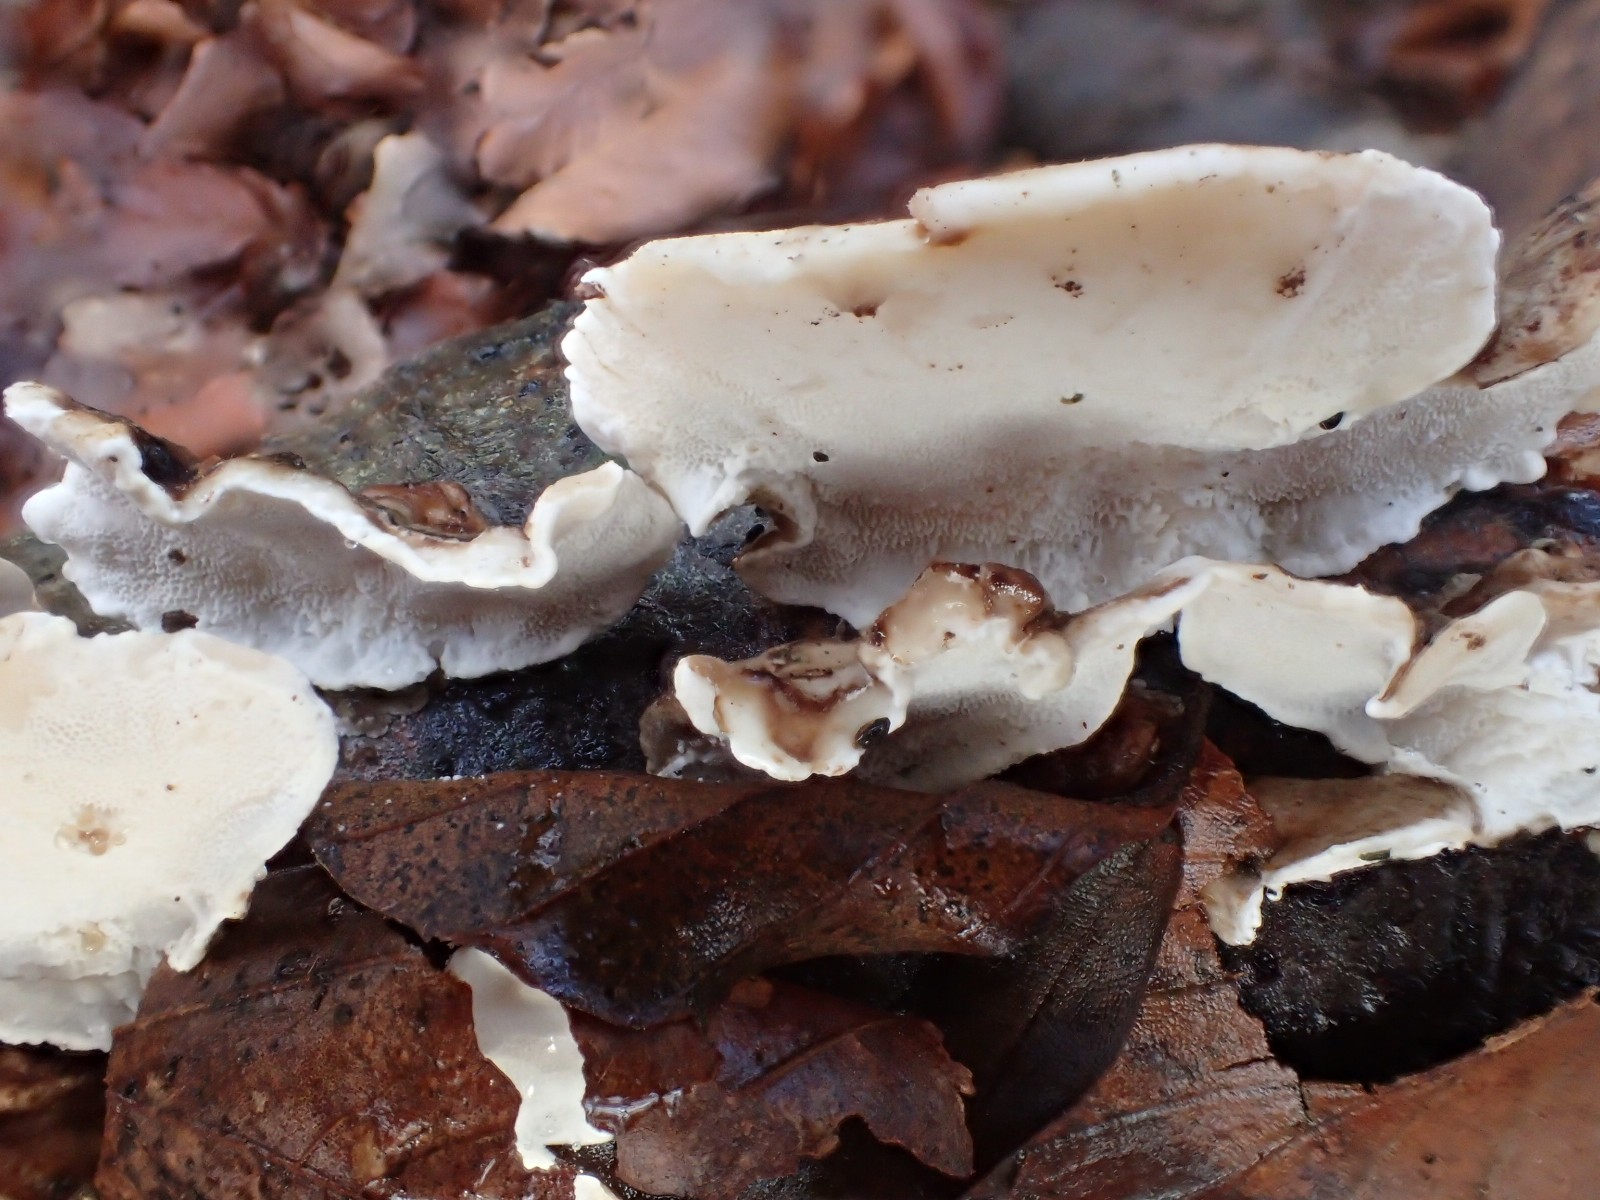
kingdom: Fungi
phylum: Basidiomycota
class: Agaricomycetes
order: Polyporales
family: Polyporaceae
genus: Trametes
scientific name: Trametes versicolor
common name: broget læderporesvamp
